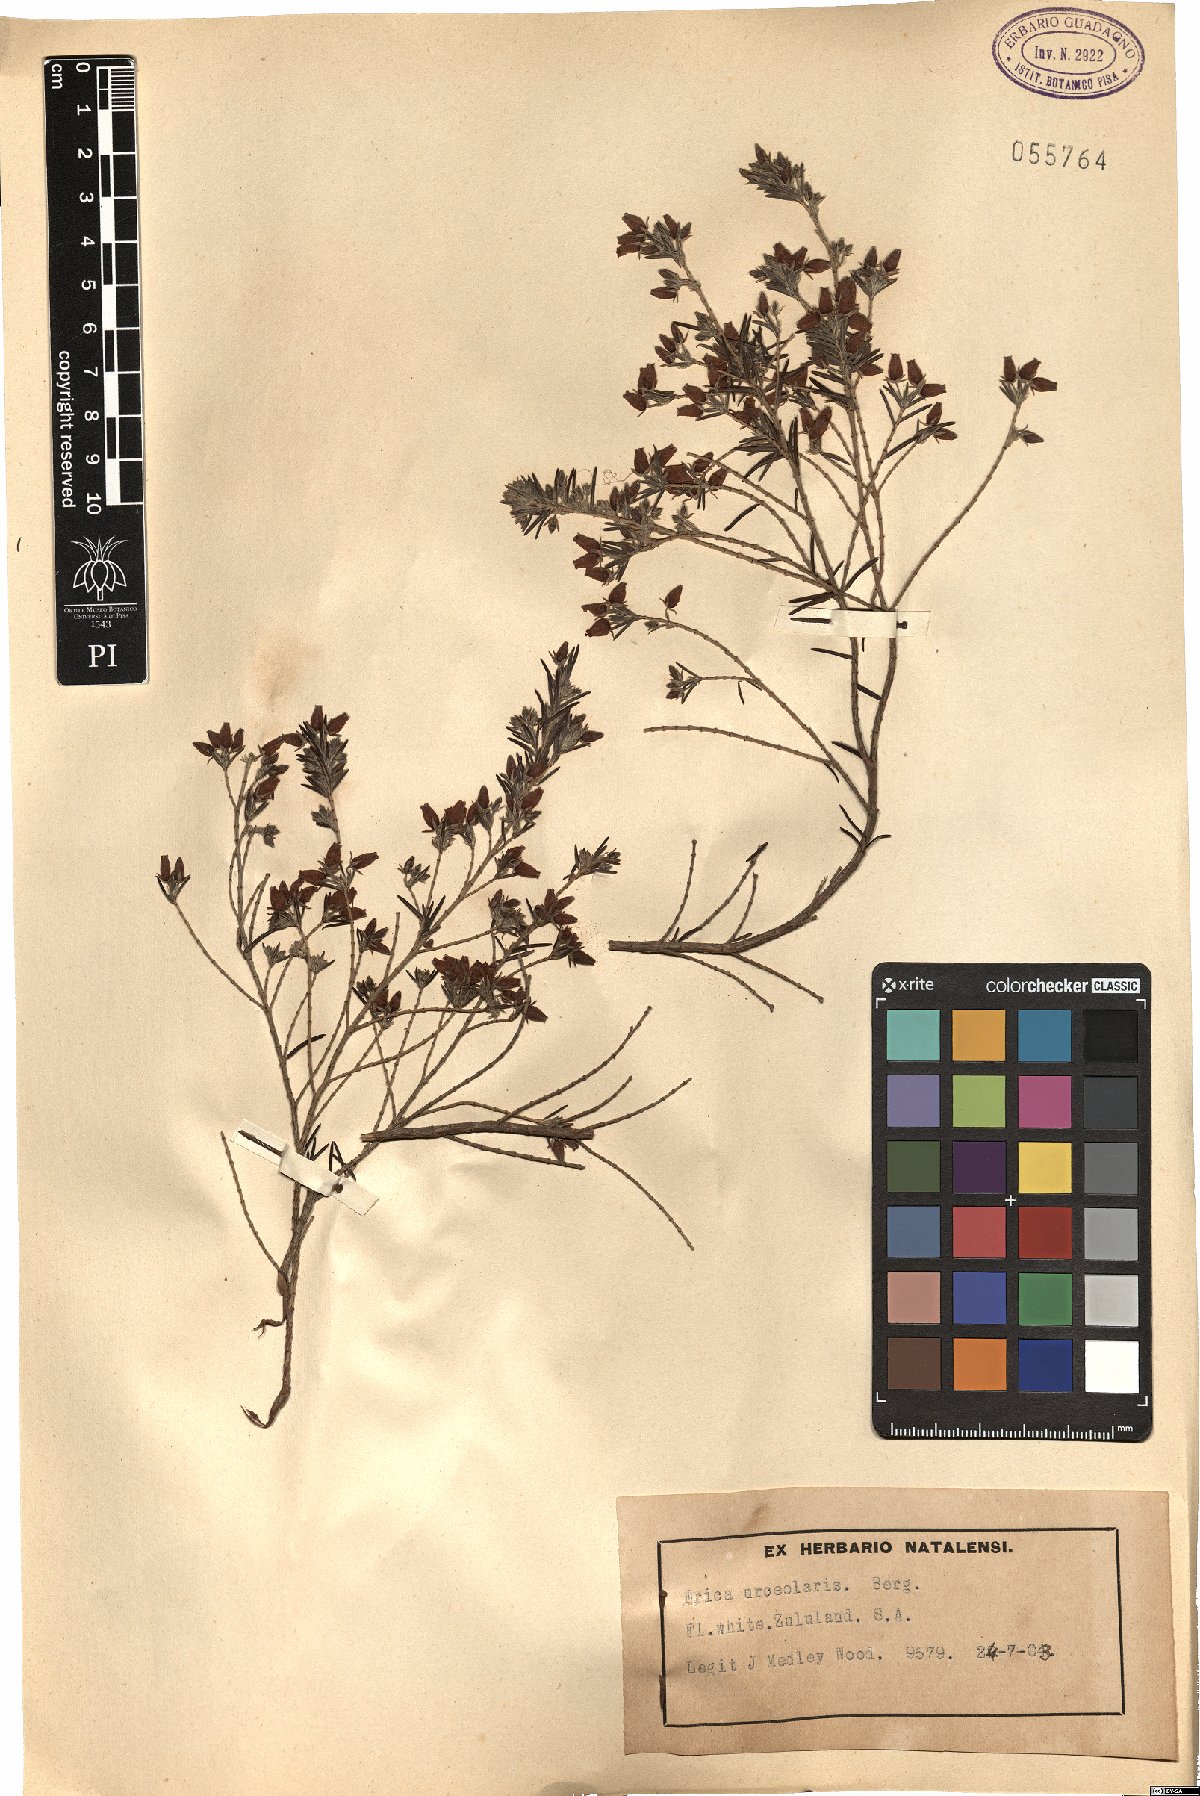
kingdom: Plantae
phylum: Tracheophyta
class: Magnoliopsida
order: Ericales
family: Ericaceae
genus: Erica
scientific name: Erica caffra
